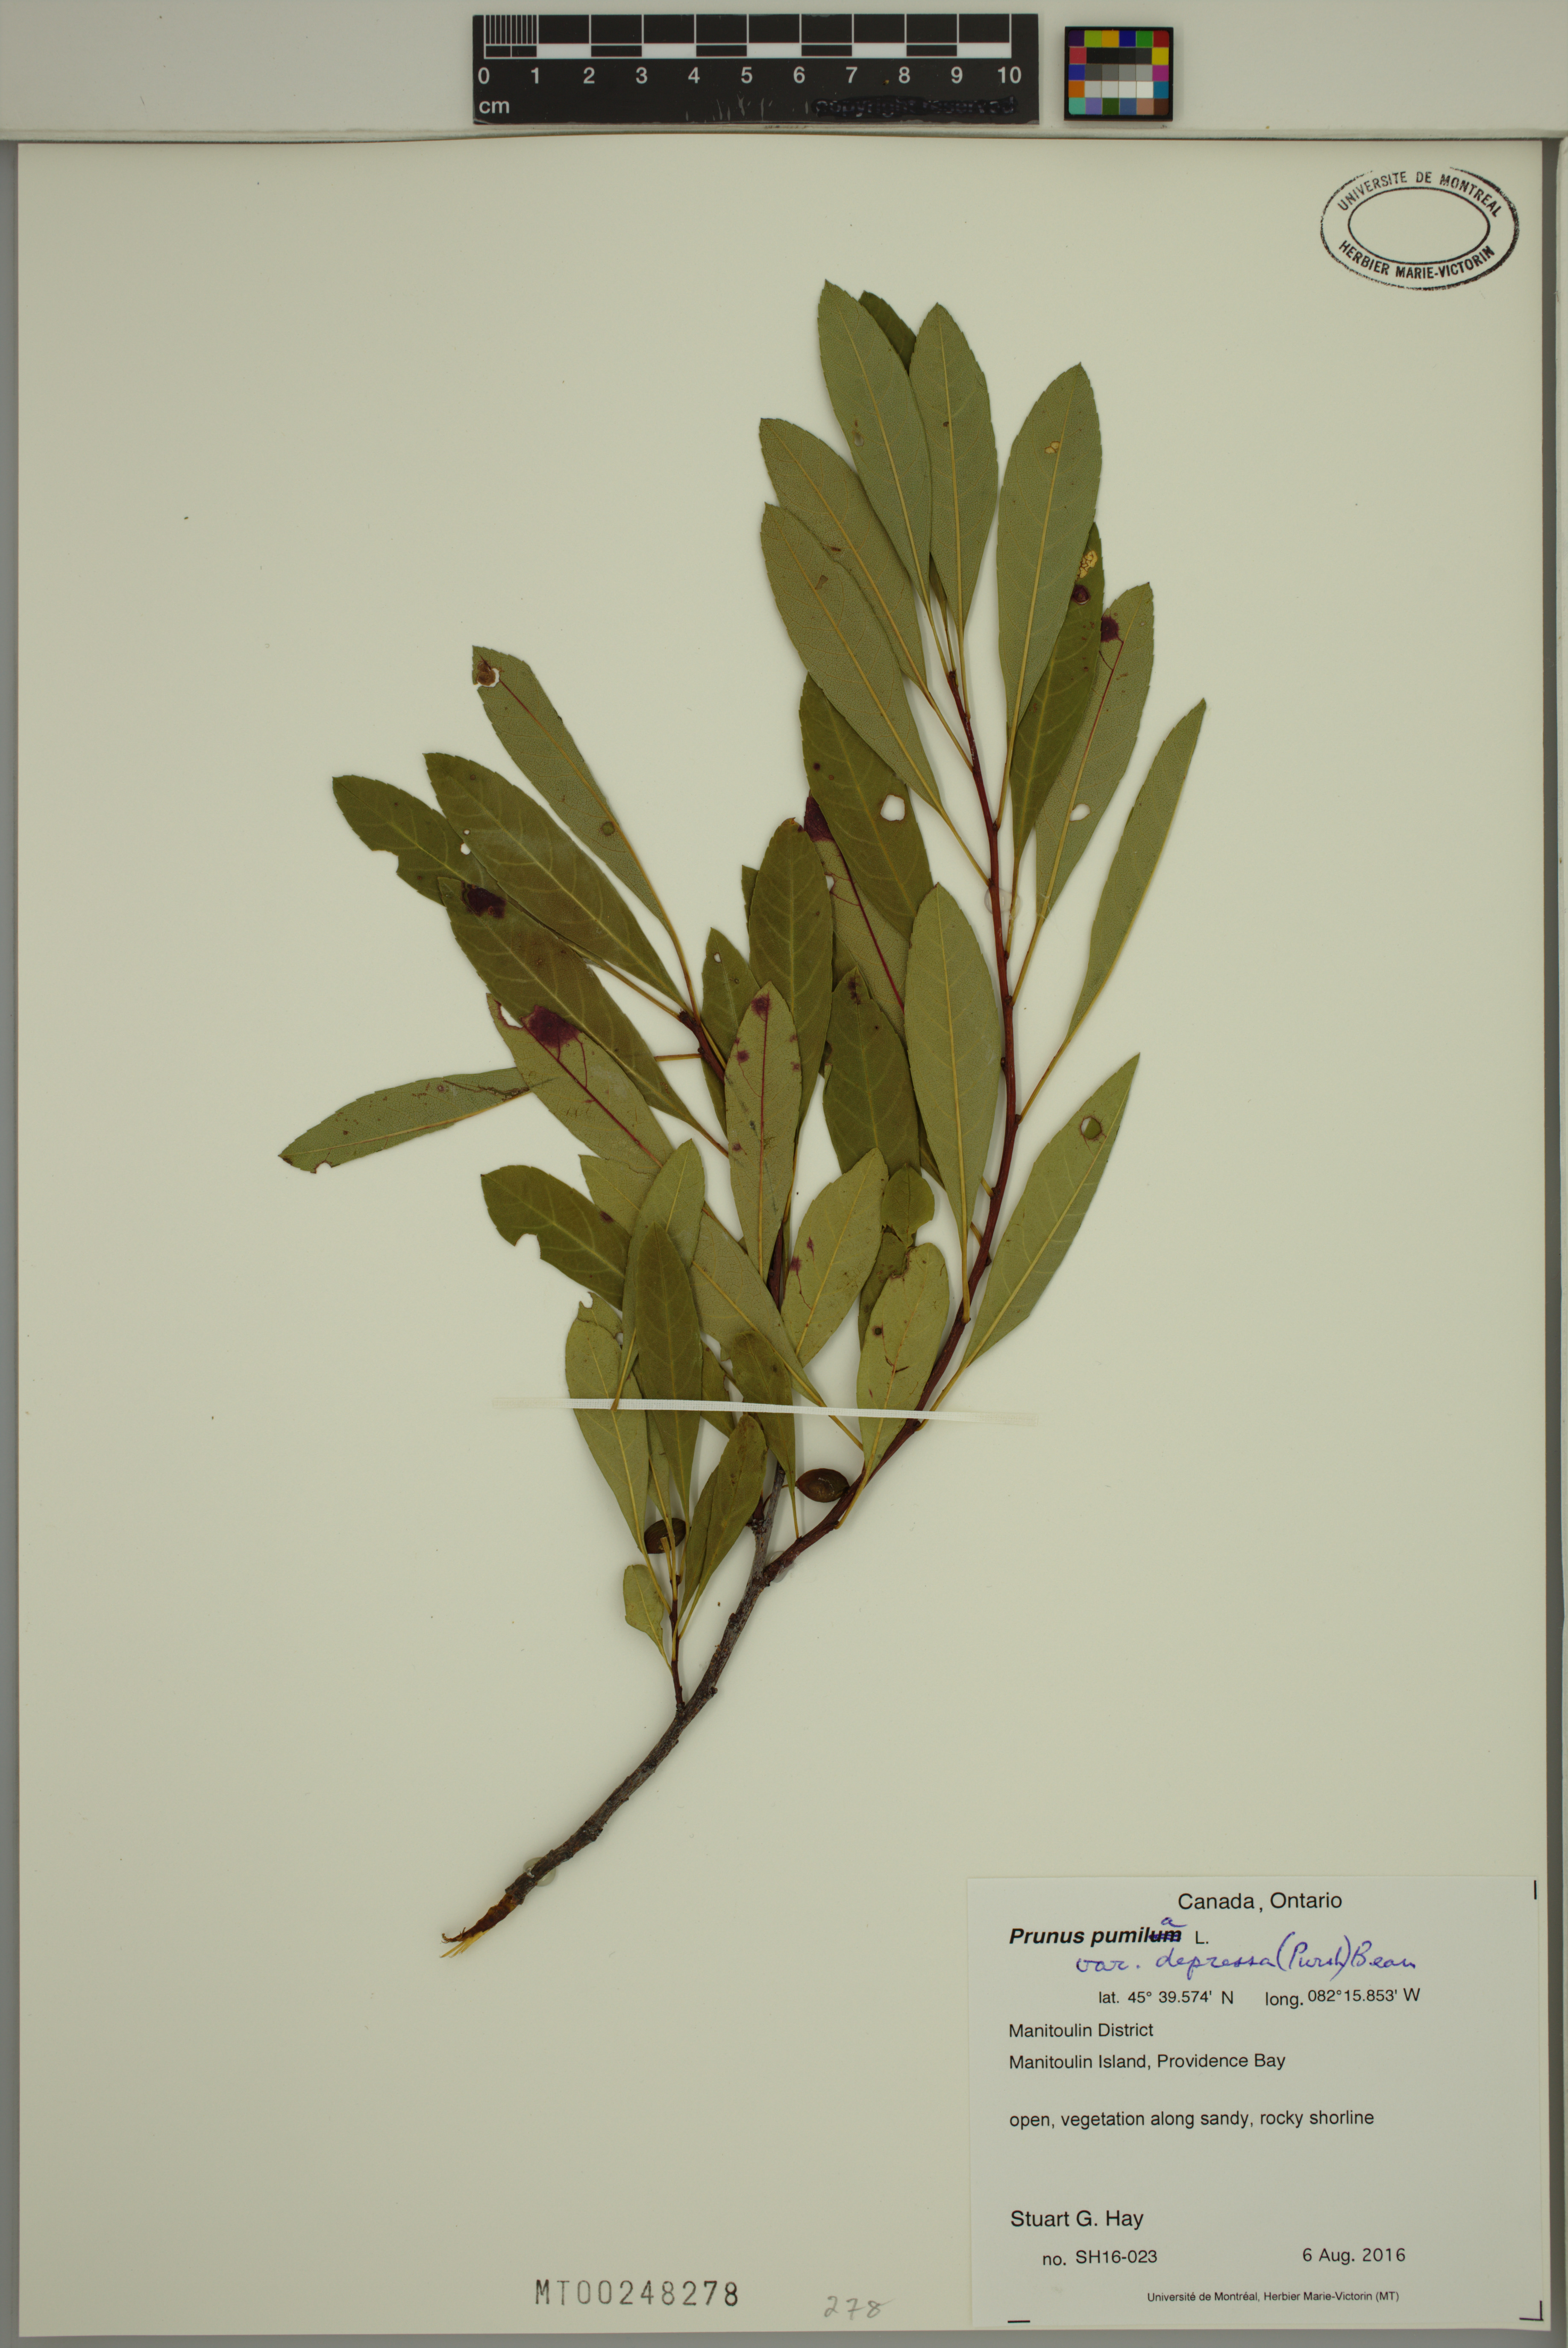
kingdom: Plantae
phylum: Tracheophyta
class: Magnoliopsida
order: Rosales
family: Rosaceae
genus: Prunus
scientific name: Prunus pumila
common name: Dwarf cherry
